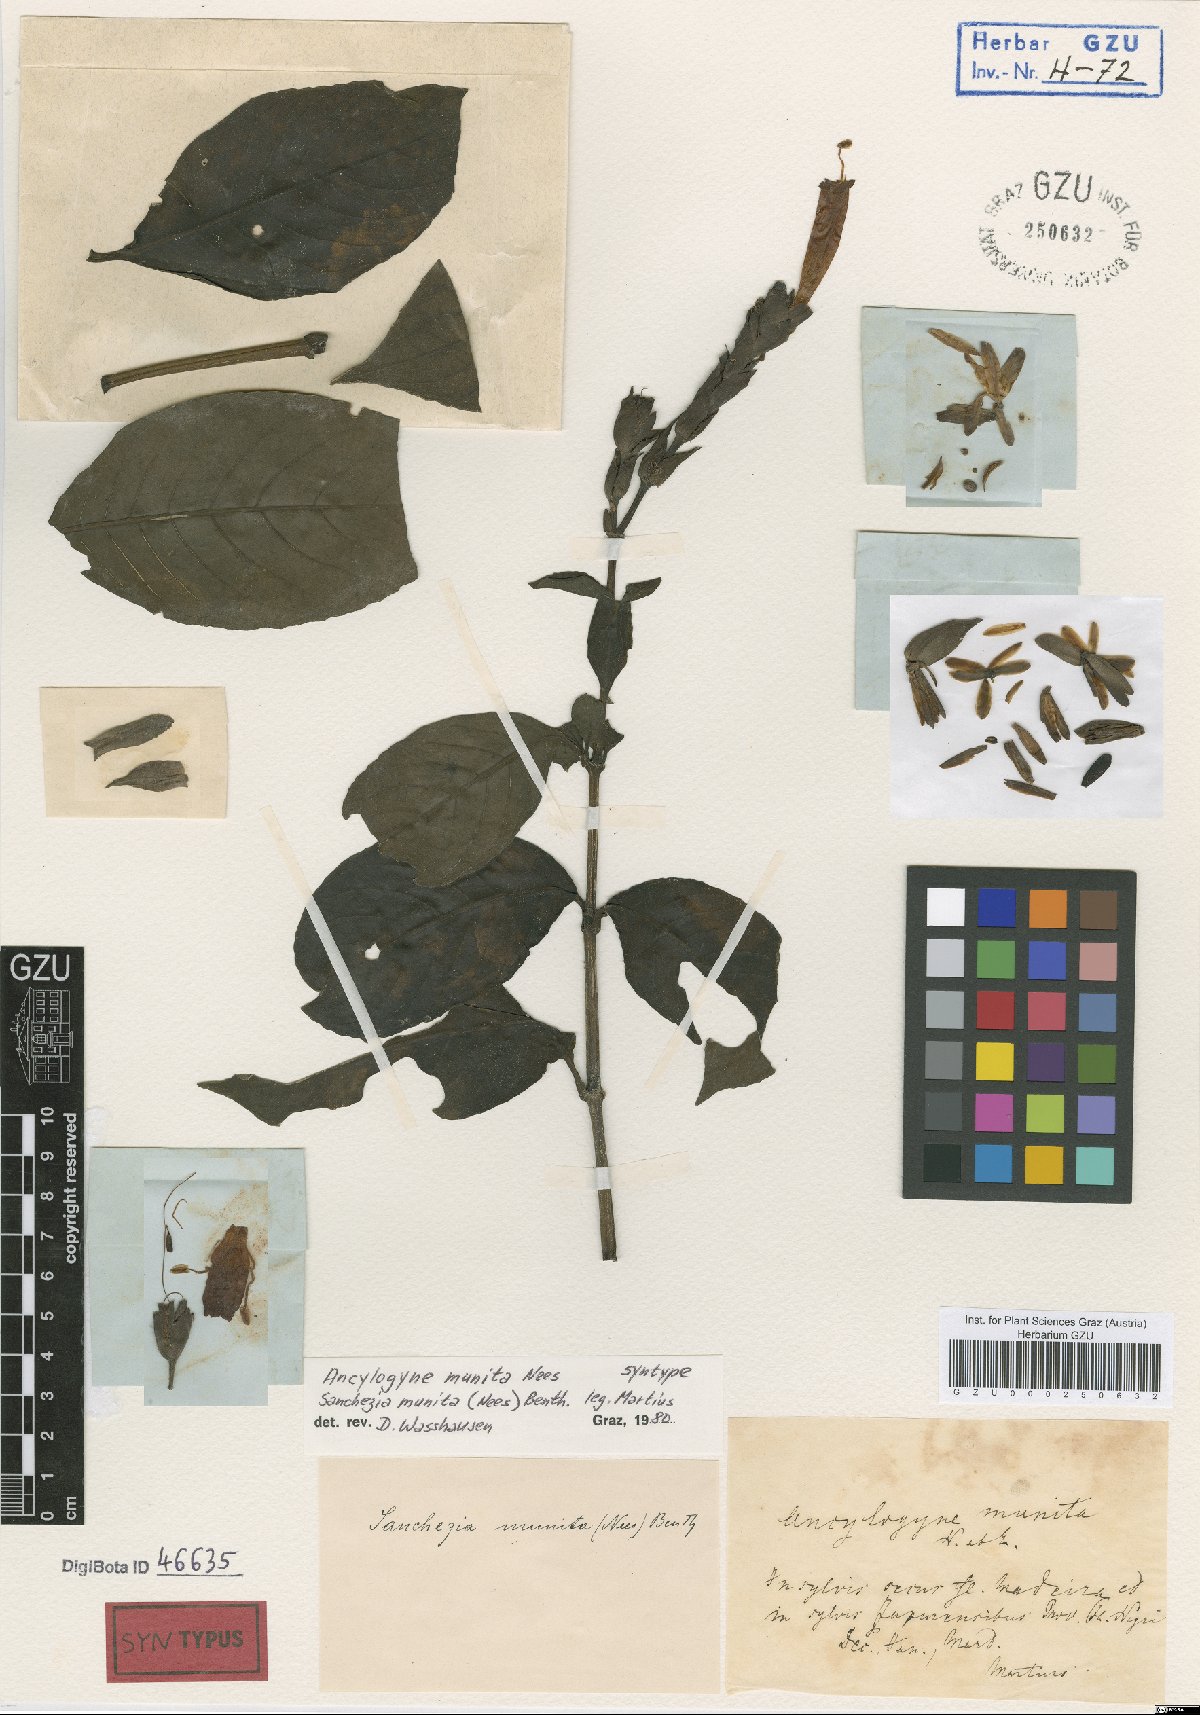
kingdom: Plantae
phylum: Tracheophyta
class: Magnoliopsida
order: Lamiales
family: Acanthaceae
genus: Sanchezia
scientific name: Sanchezia munita
